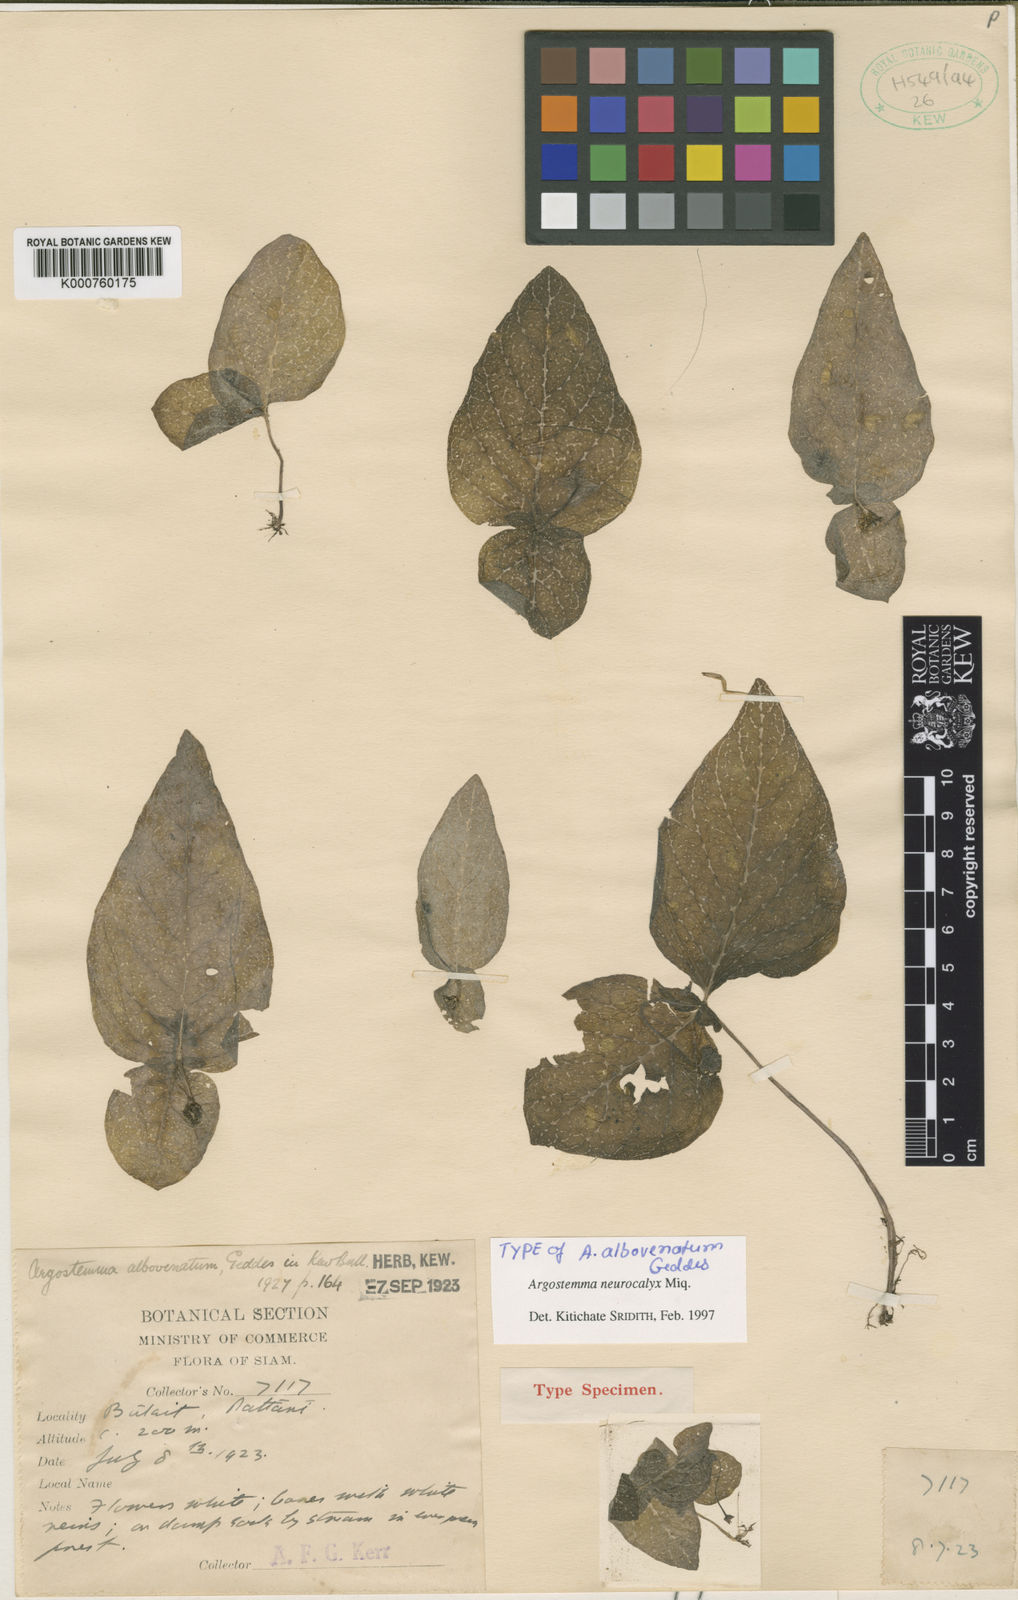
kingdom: Plantae
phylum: Tracheophyta
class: Magnoliopsida
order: Gentianales
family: Rubiaceae
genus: Argostemma
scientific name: Argostemma neurocalyx
